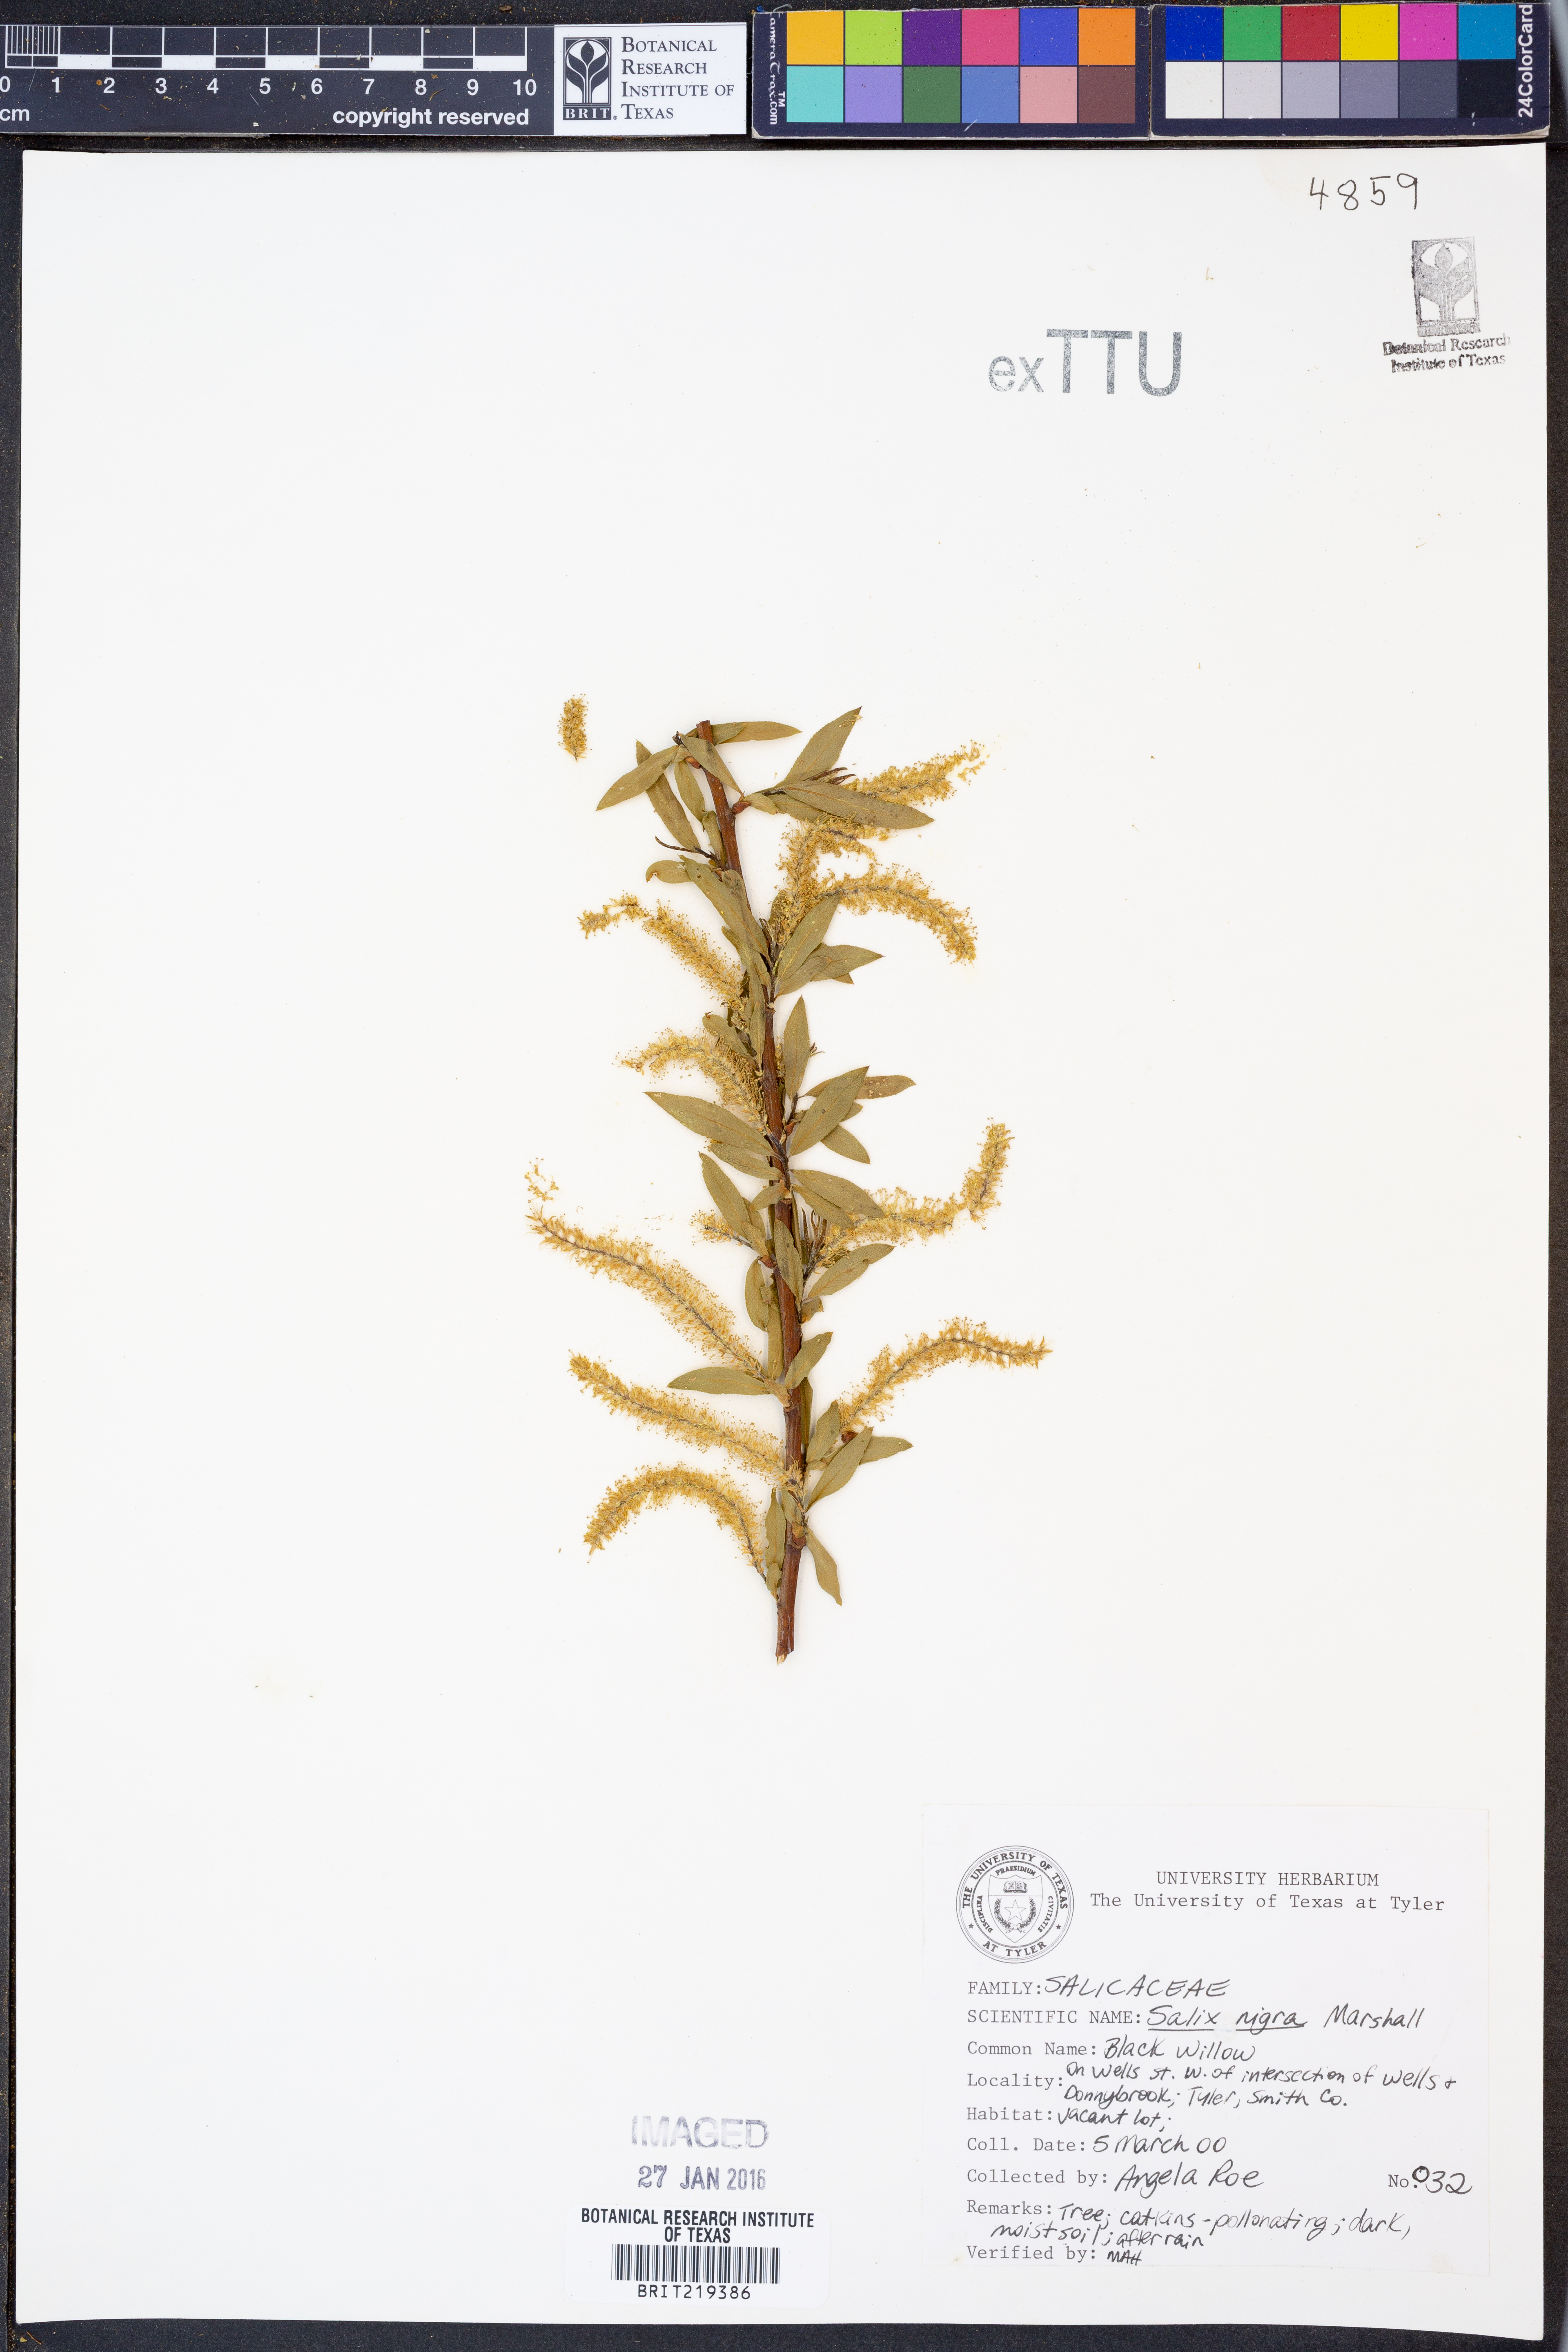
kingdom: Plantae
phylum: Tracheophyta
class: Magnoliopsida
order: Malpighiales
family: Salicaceae
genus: Salix
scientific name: Salix nigra
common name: Black willow
